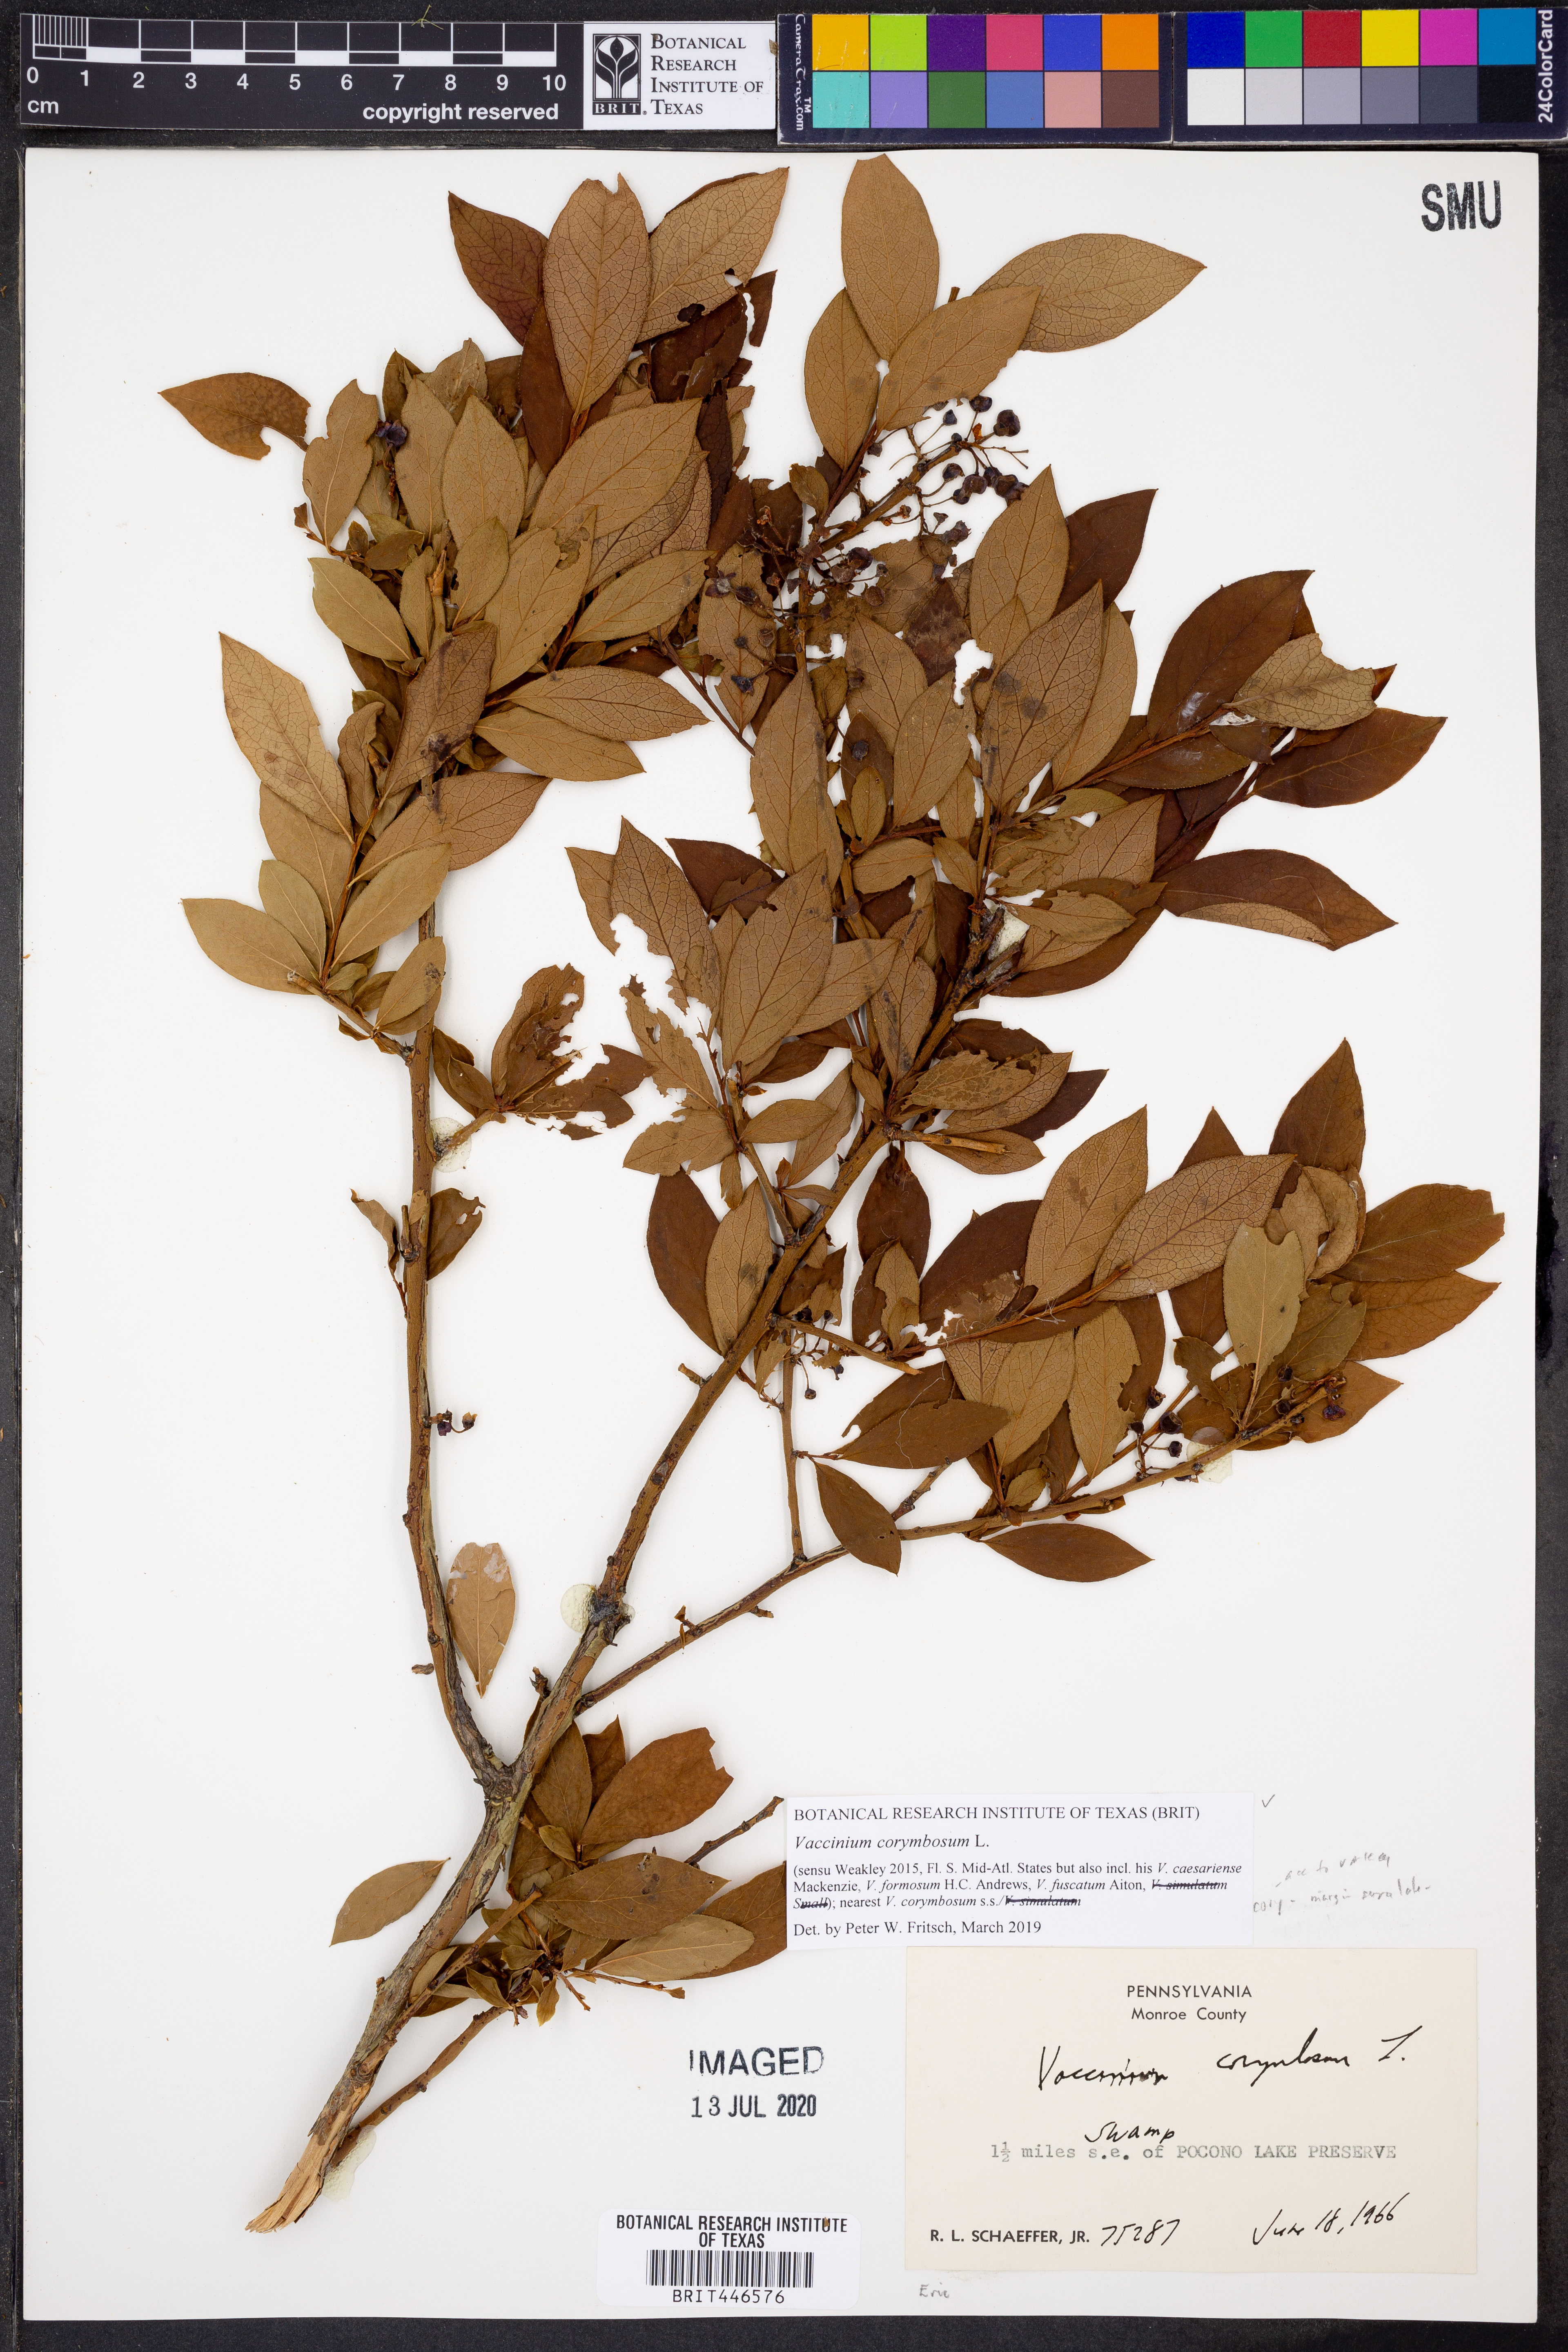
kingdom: Plantae
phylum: Tracheophyta
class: Magnoliopsida
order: Ericales
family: Ericaceae
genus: Vaccinium
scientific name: Vaccinium corymbosum
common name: Blueberry
